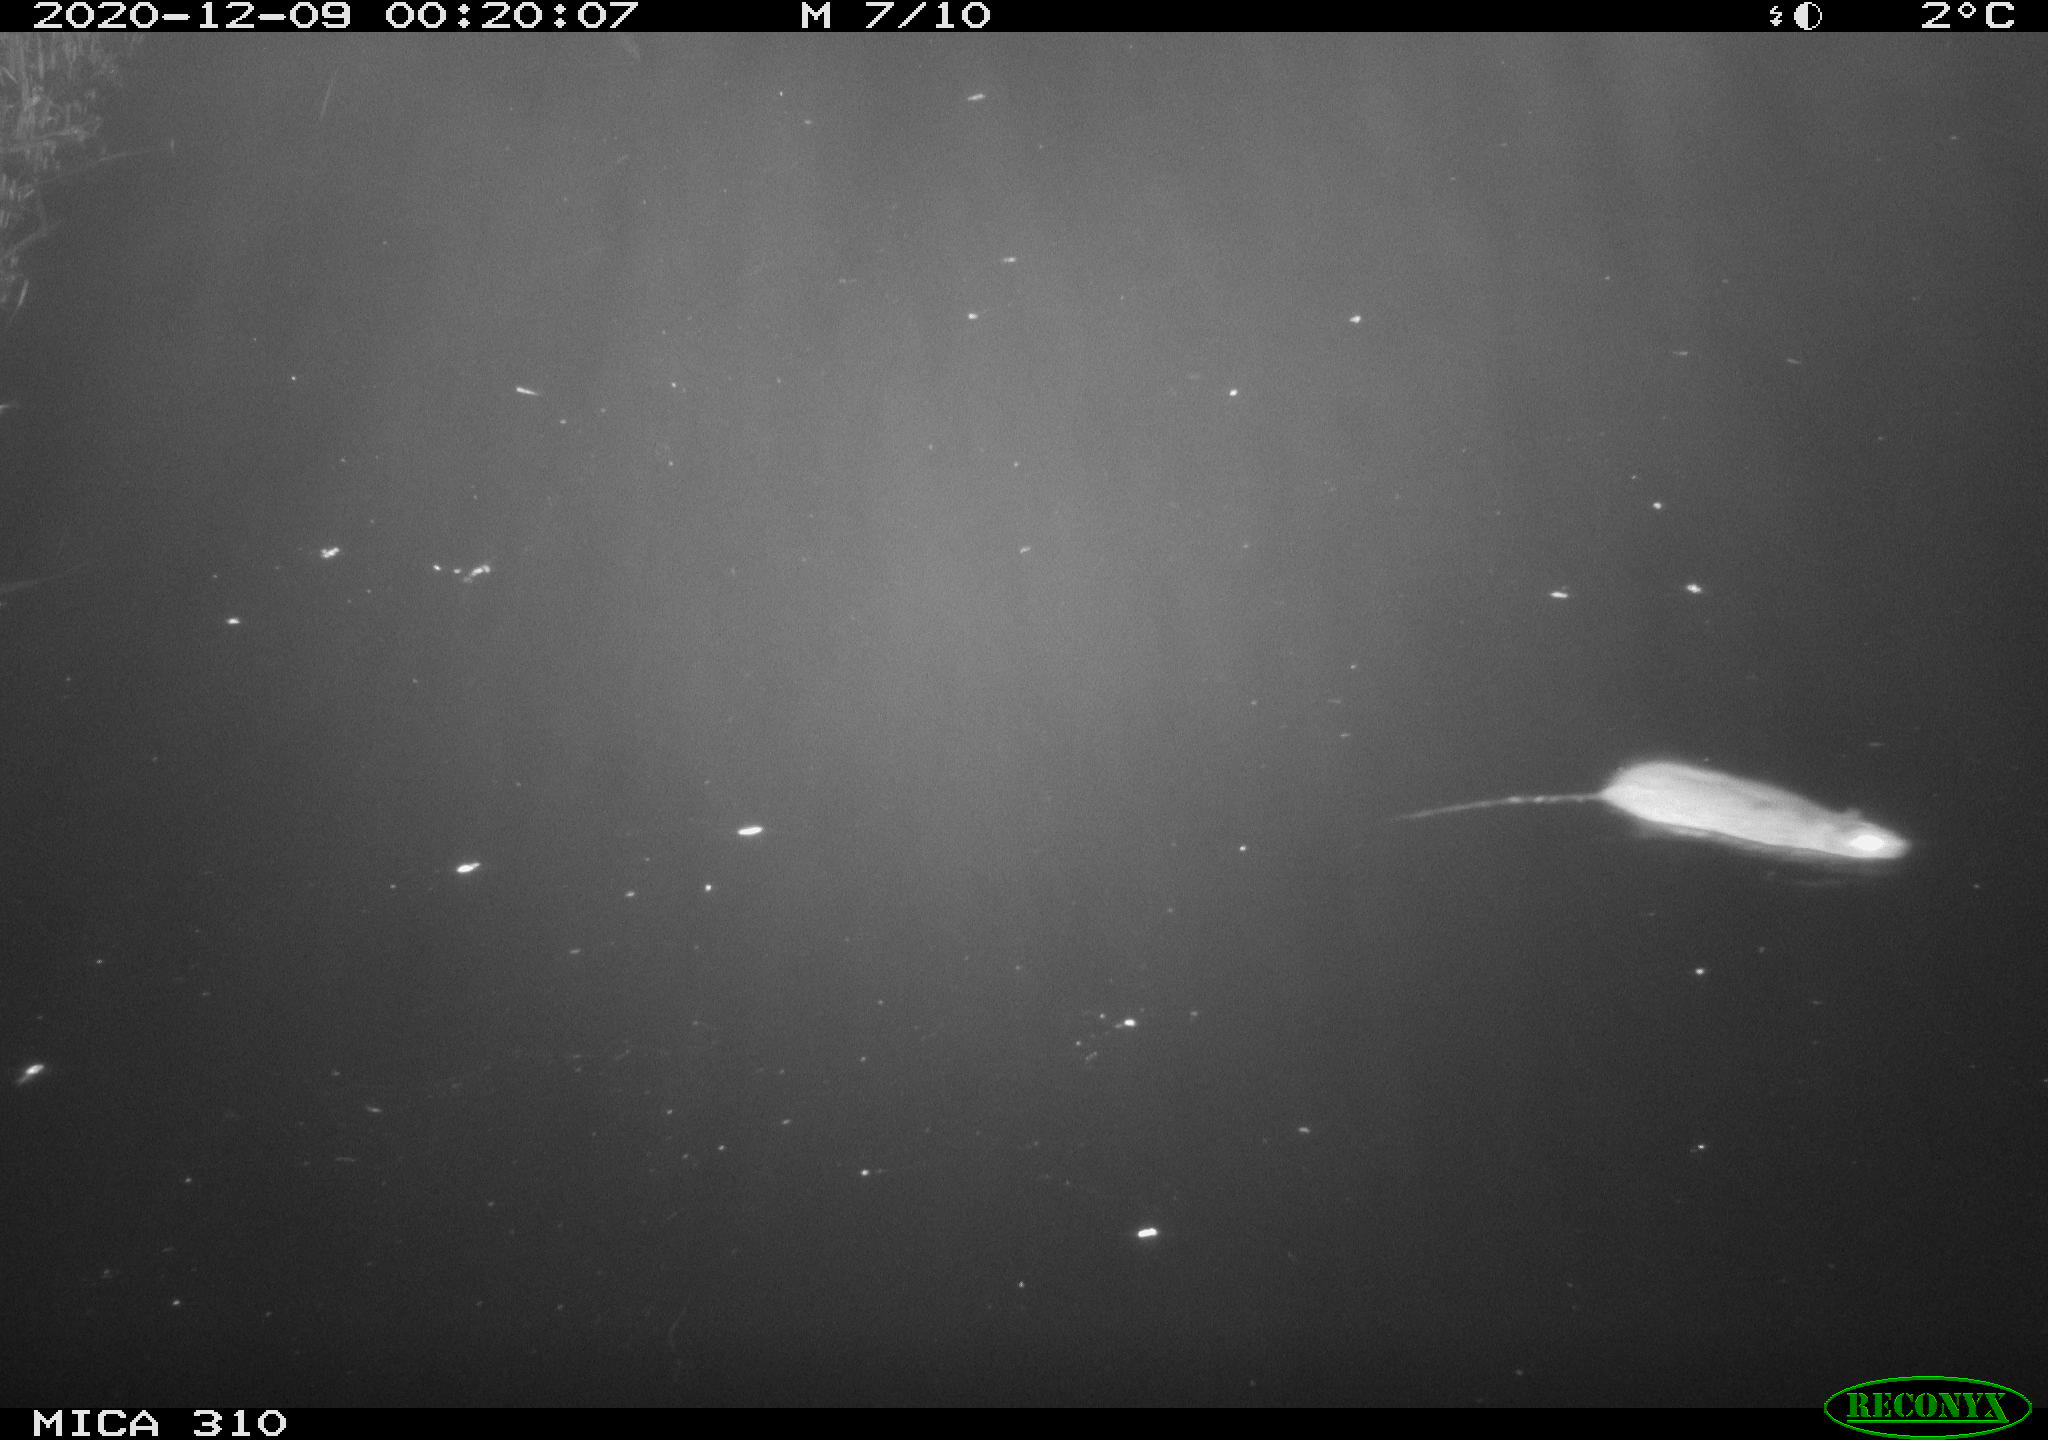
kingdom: Animalia
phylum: Chordata
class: Mammalia
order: Rodentia
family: Muridae
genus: Rattus
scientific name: Rattus norvegicus
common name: Brown rat
